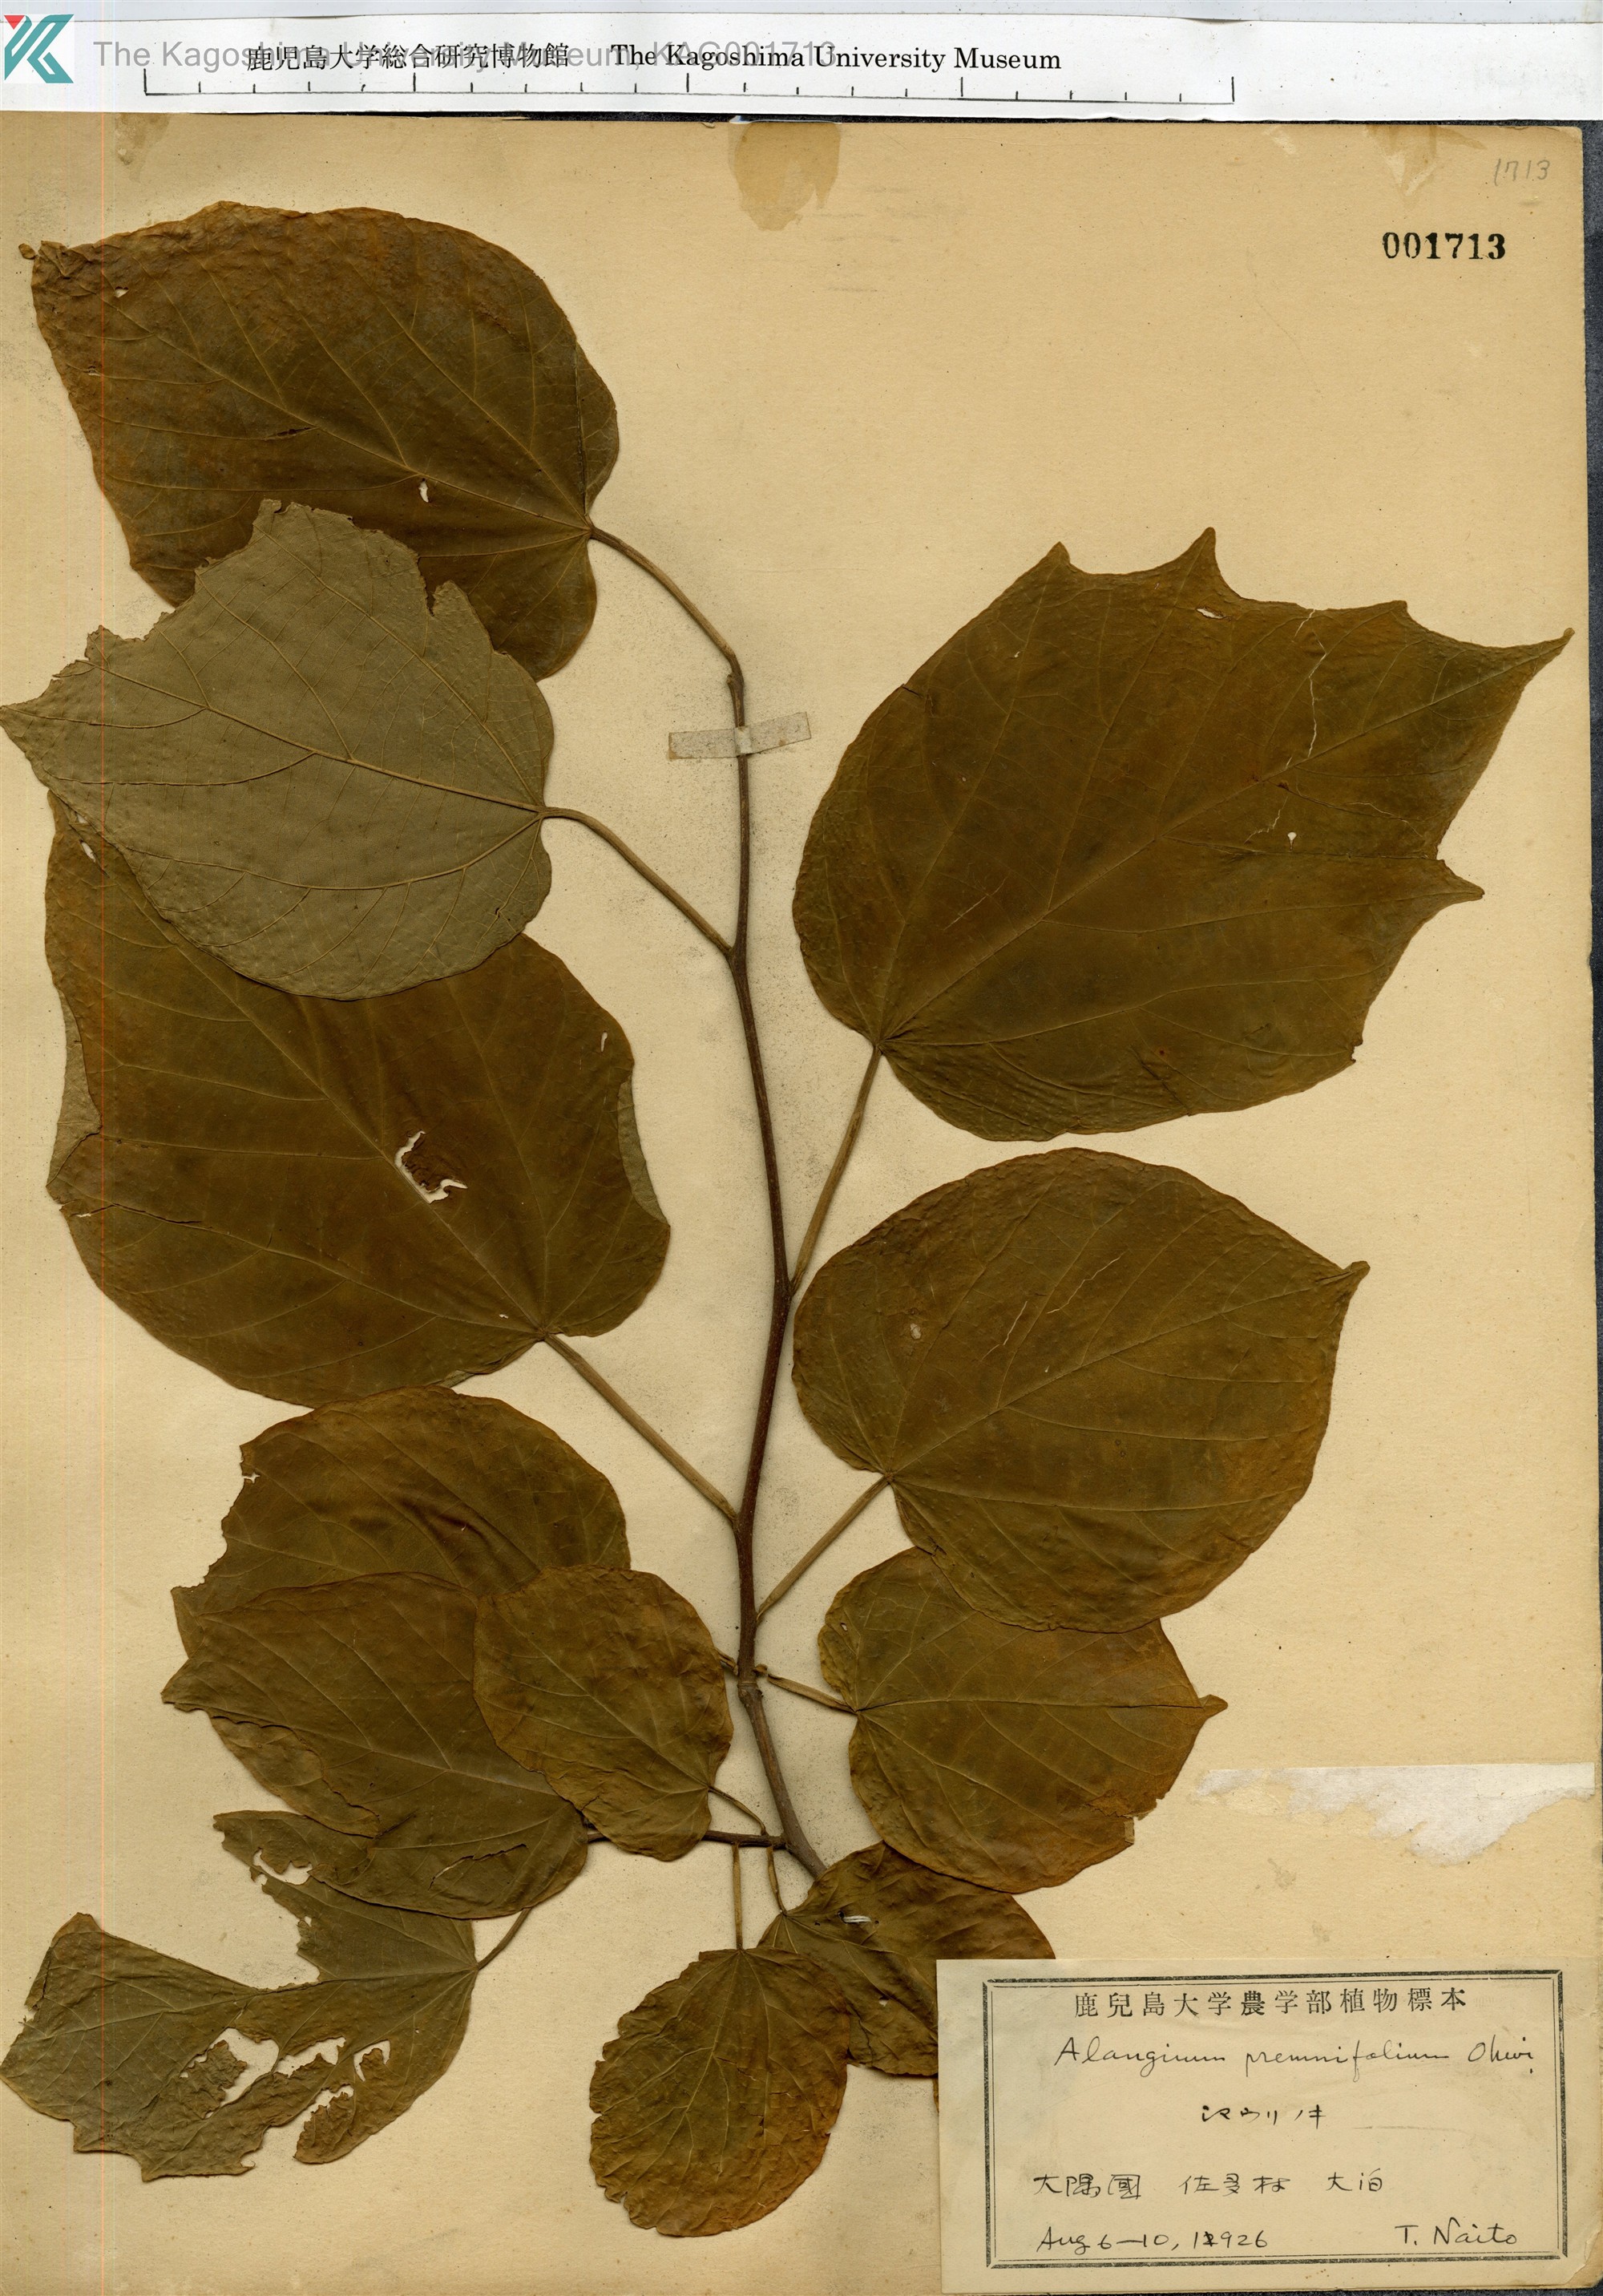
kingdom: Plantae
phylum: Tracheophyta
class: Magnoliopsida
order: Cornales
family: Cornaceae
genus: Alangium
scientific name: Alangium premnifolium
